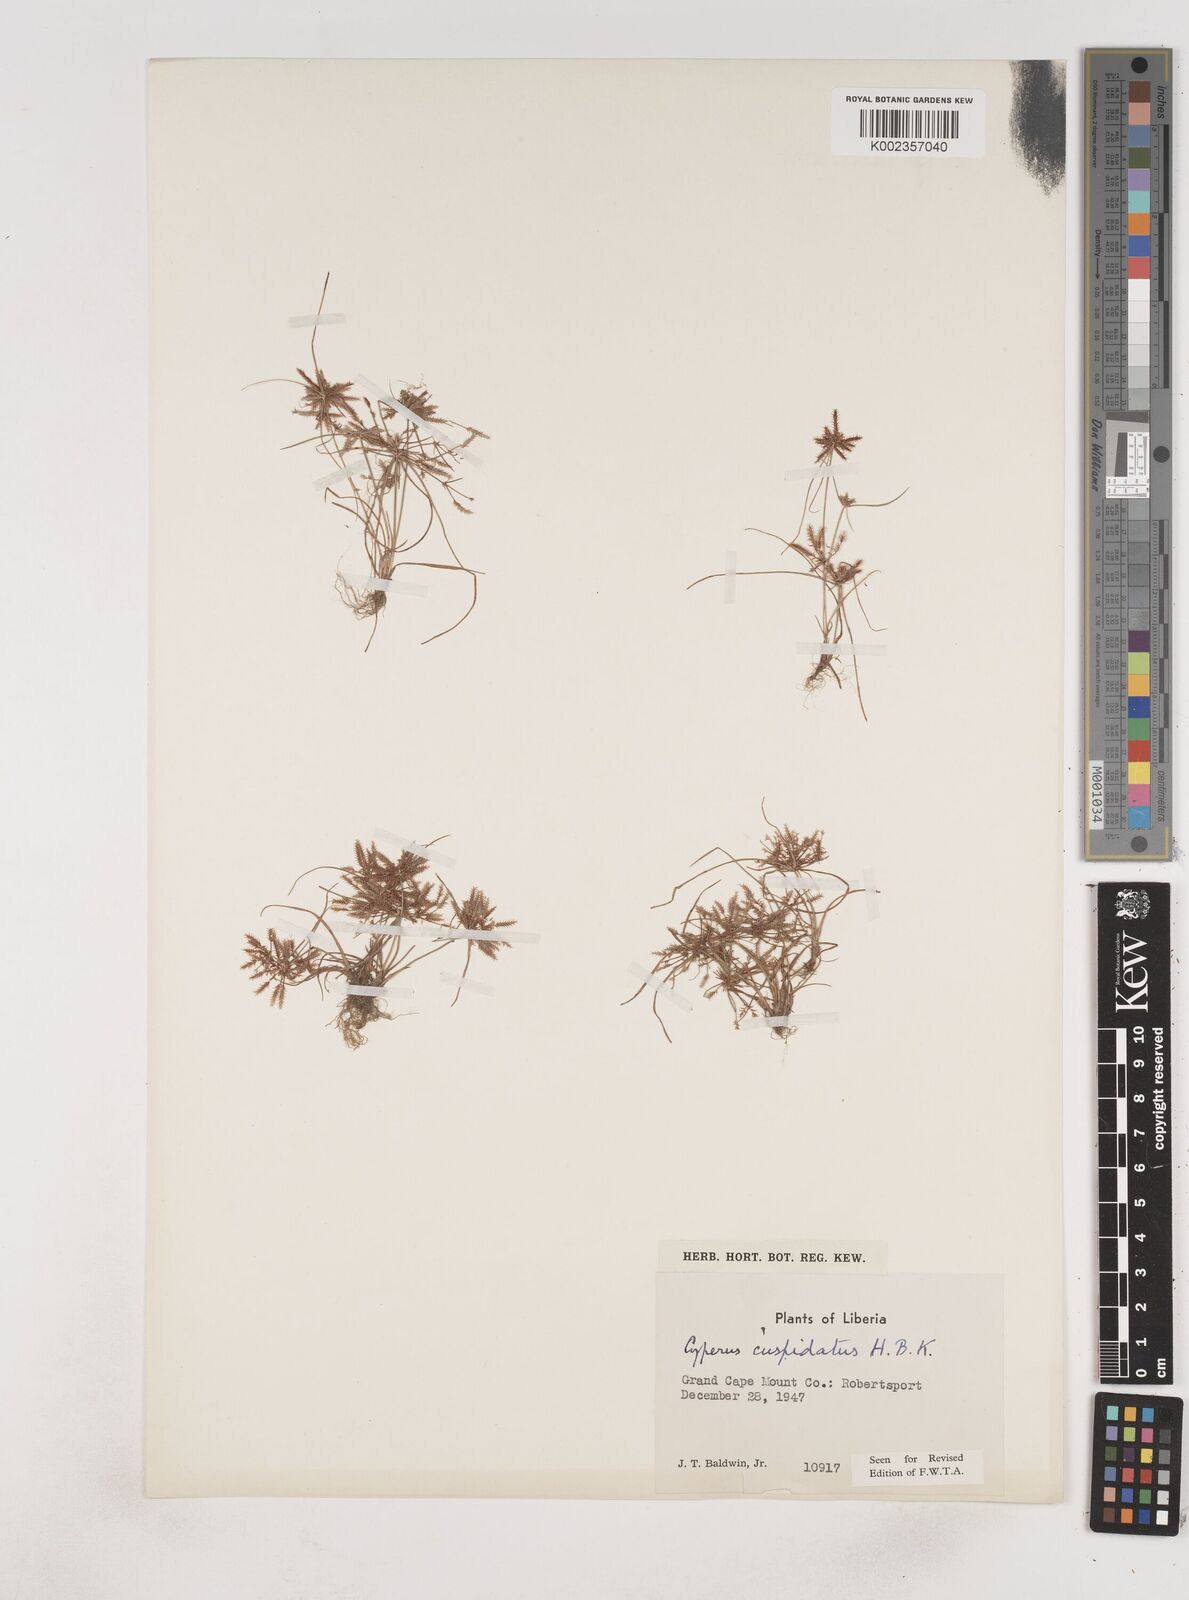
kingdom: Plantae
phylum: Tracheophyta
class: Liliopsida
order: Poales
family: Cyperaceae
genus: Cyperus
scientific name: Cyperus
